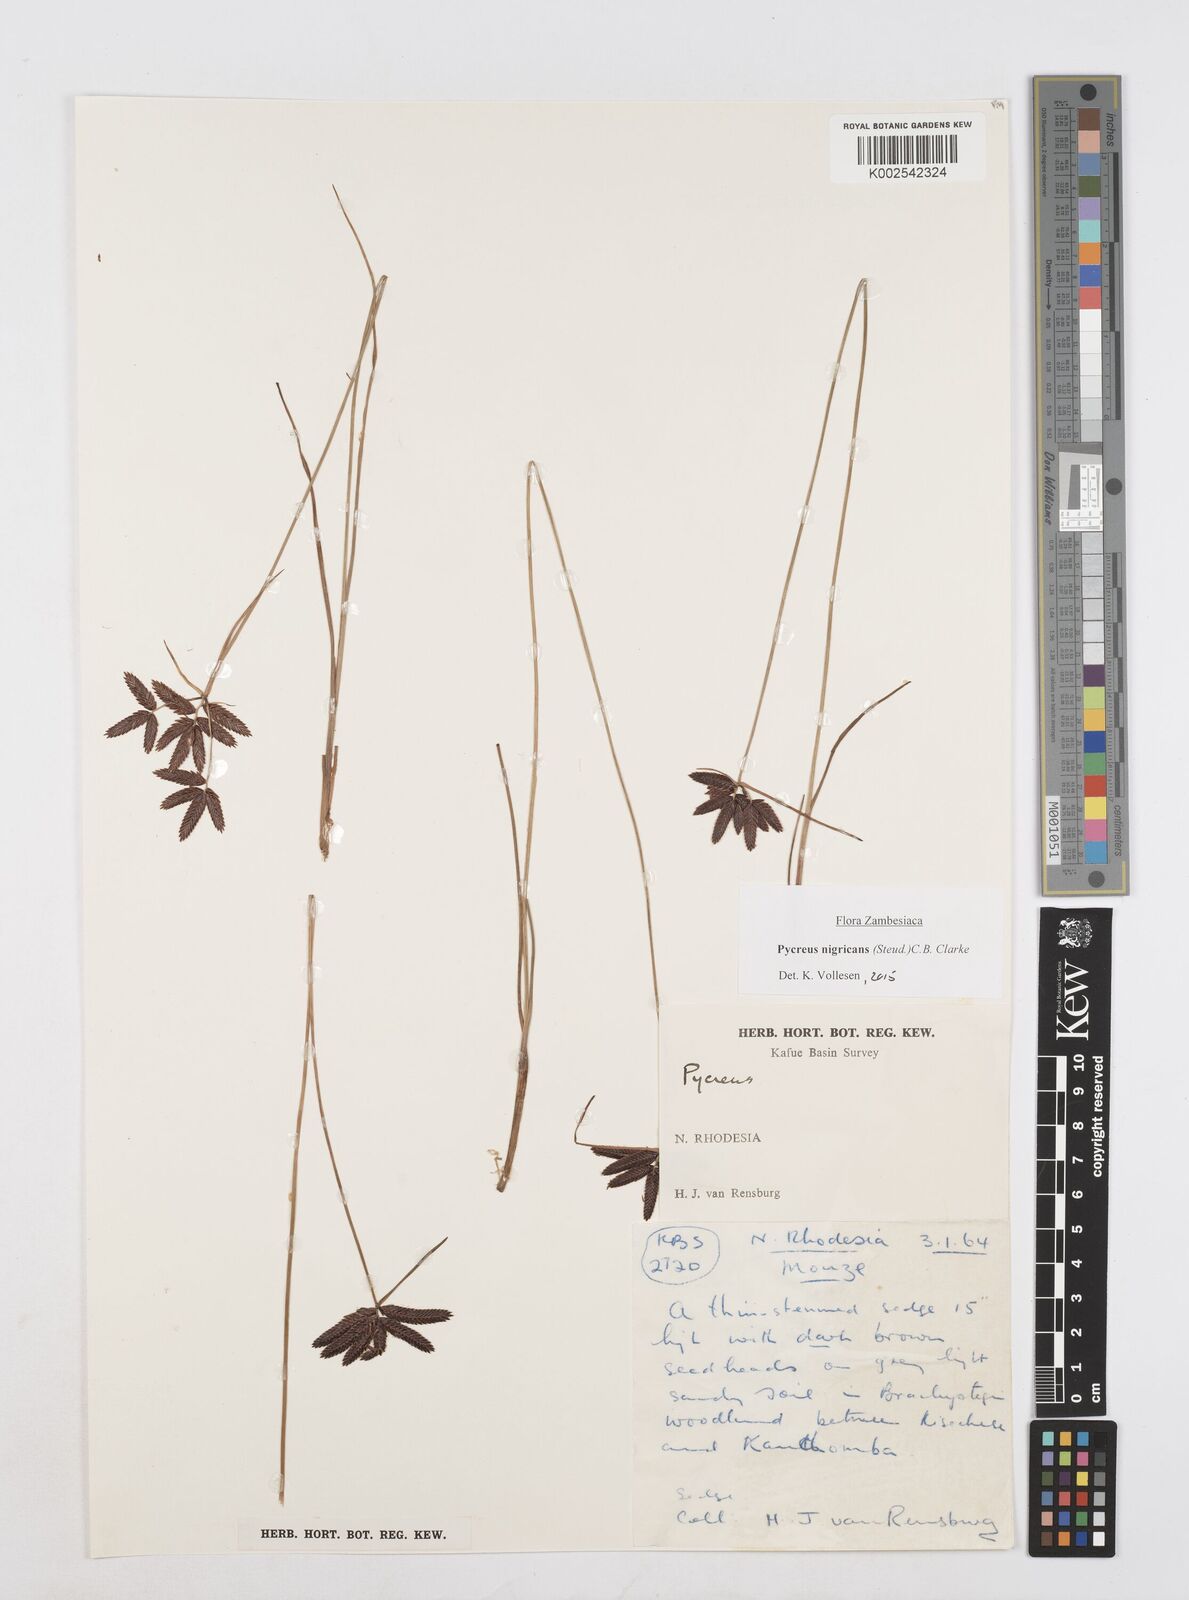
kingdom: Plantae
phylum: Tracheophyta
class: Liliopsida
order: Poales
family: Cyperaceae
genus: Cyperus
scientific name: Cyperus nigricans
